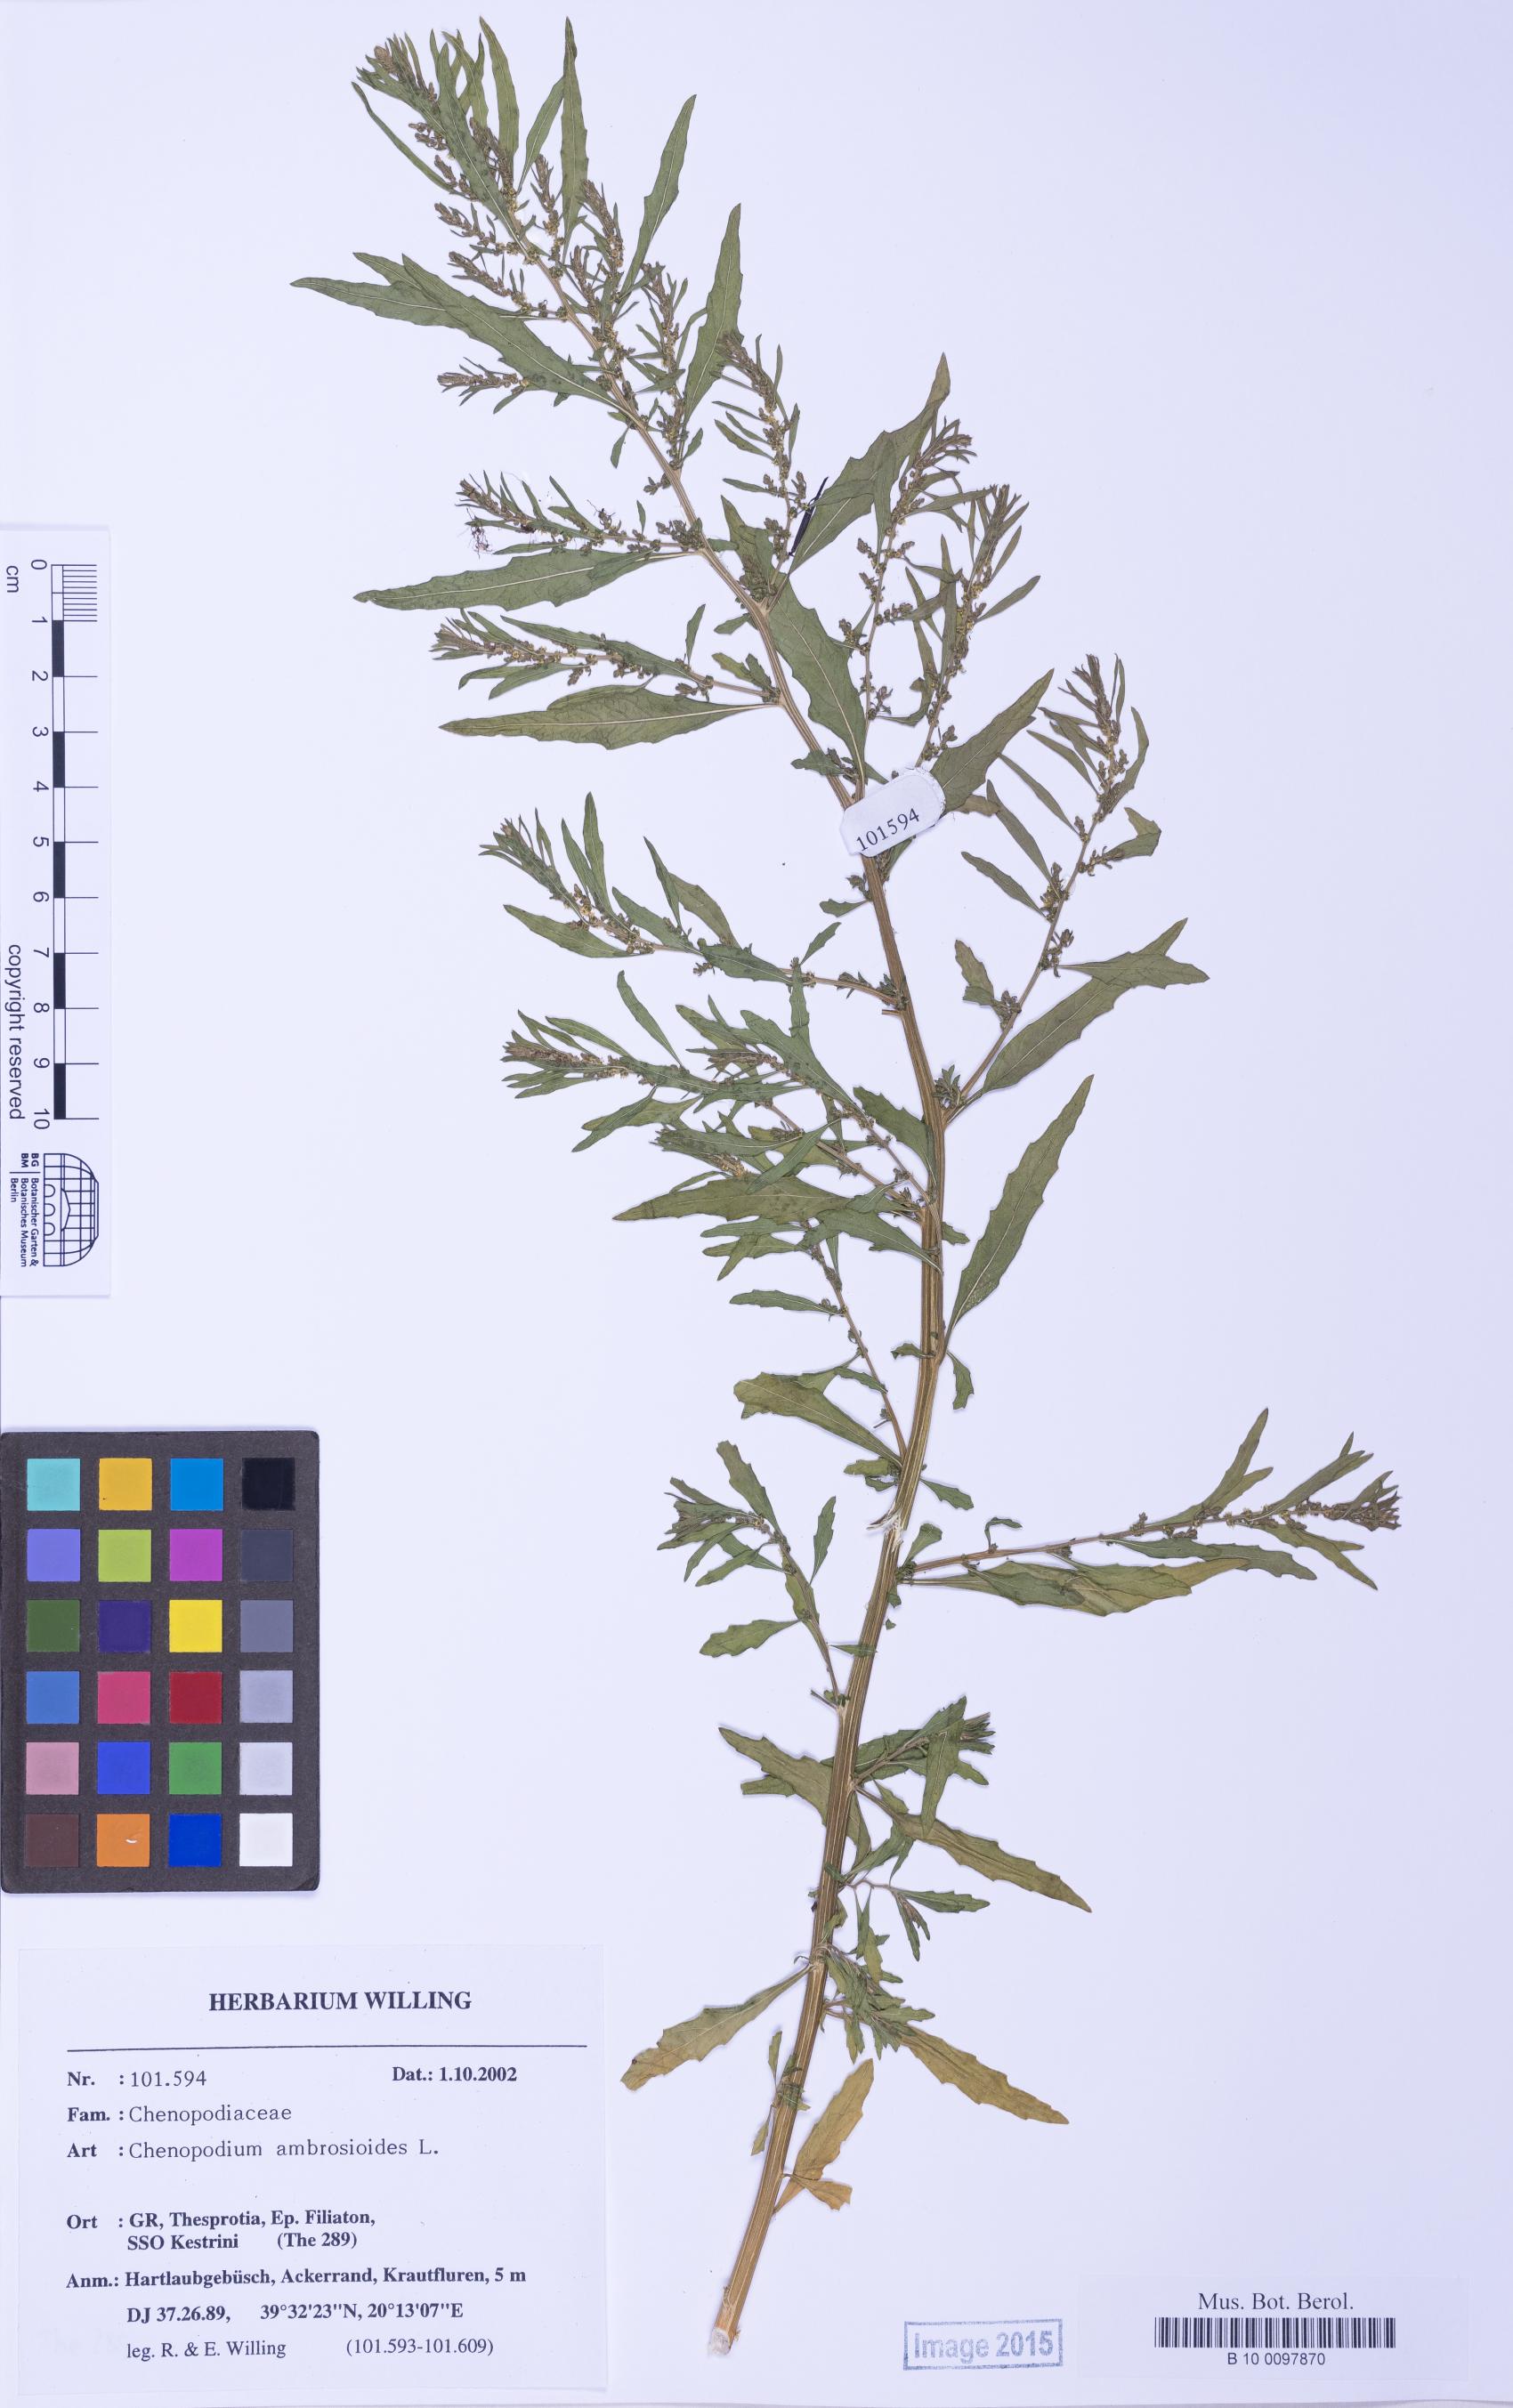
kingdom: Plantae
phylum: Tracheophyta
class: Magnoliopsida
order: Caryophyllales
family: Amaranthaceae
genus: Dysphania
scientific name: Dysphania ambrosioides
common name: Wormseed
